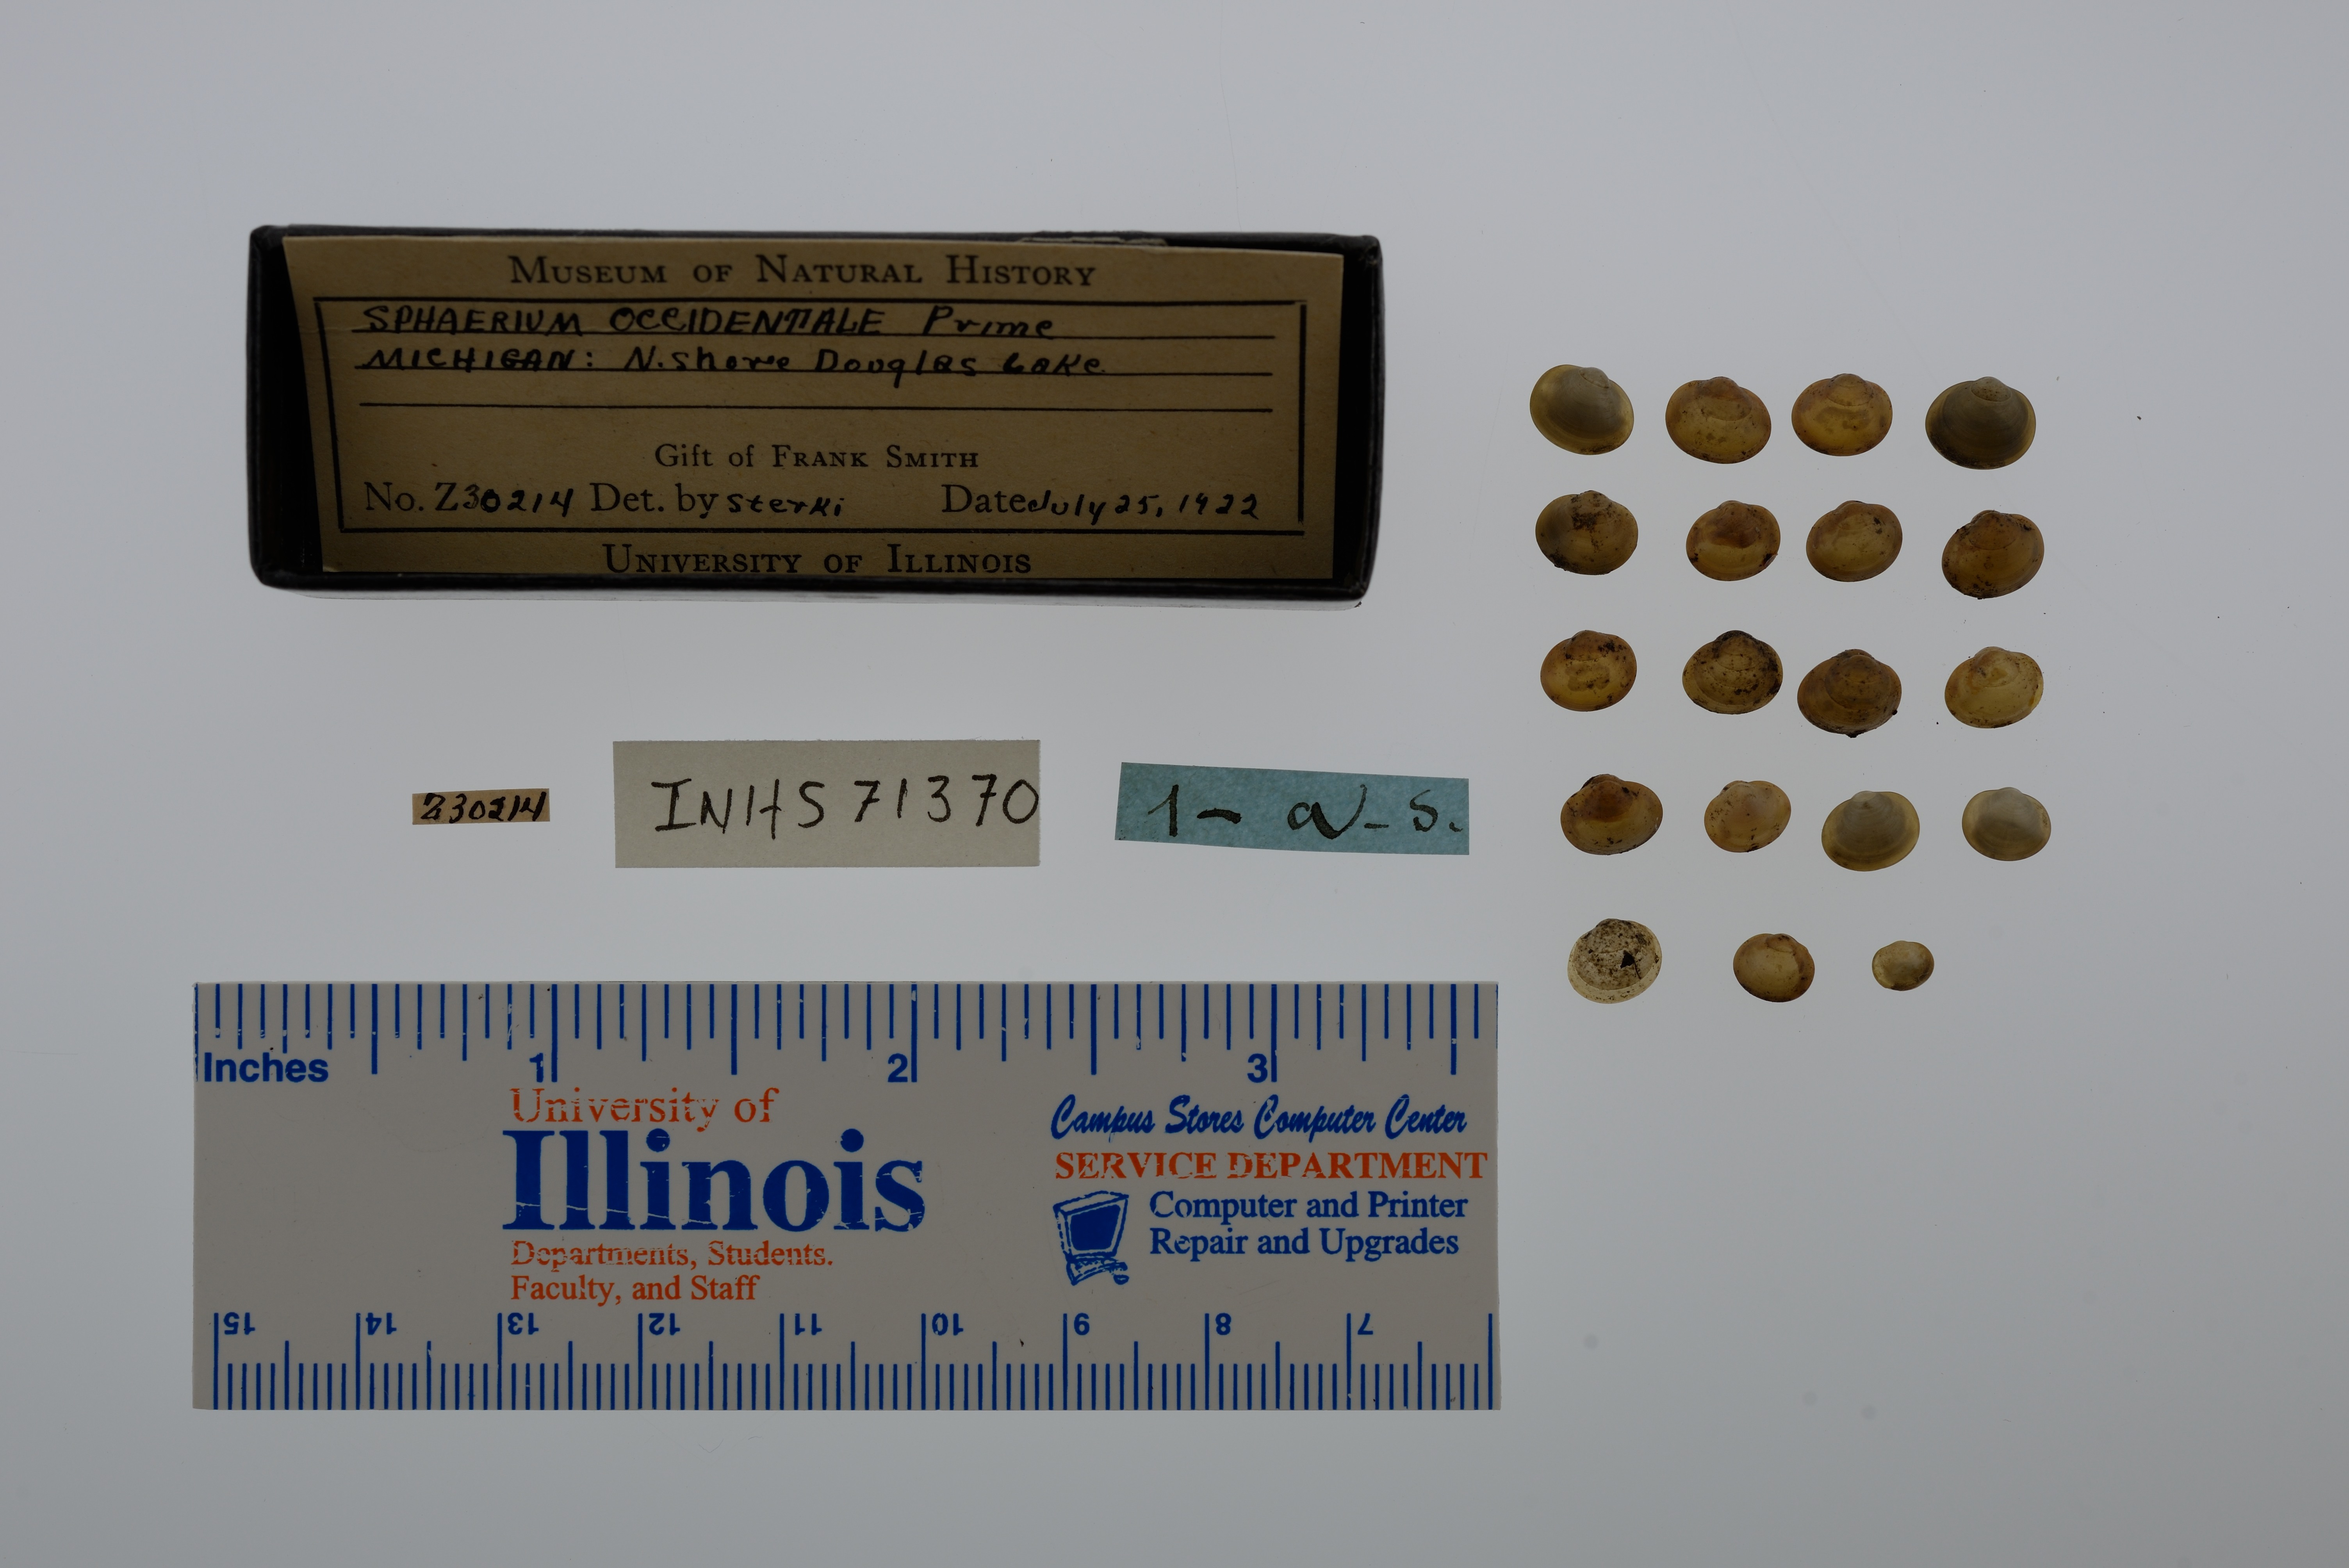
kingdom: Animalia
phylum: Mollusca
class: Bivalvia
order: Sphaeriida
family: Sphaeriidae
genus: Sphaerium
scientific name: Sphaerium occidentale
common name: Herrington fingernailclam
